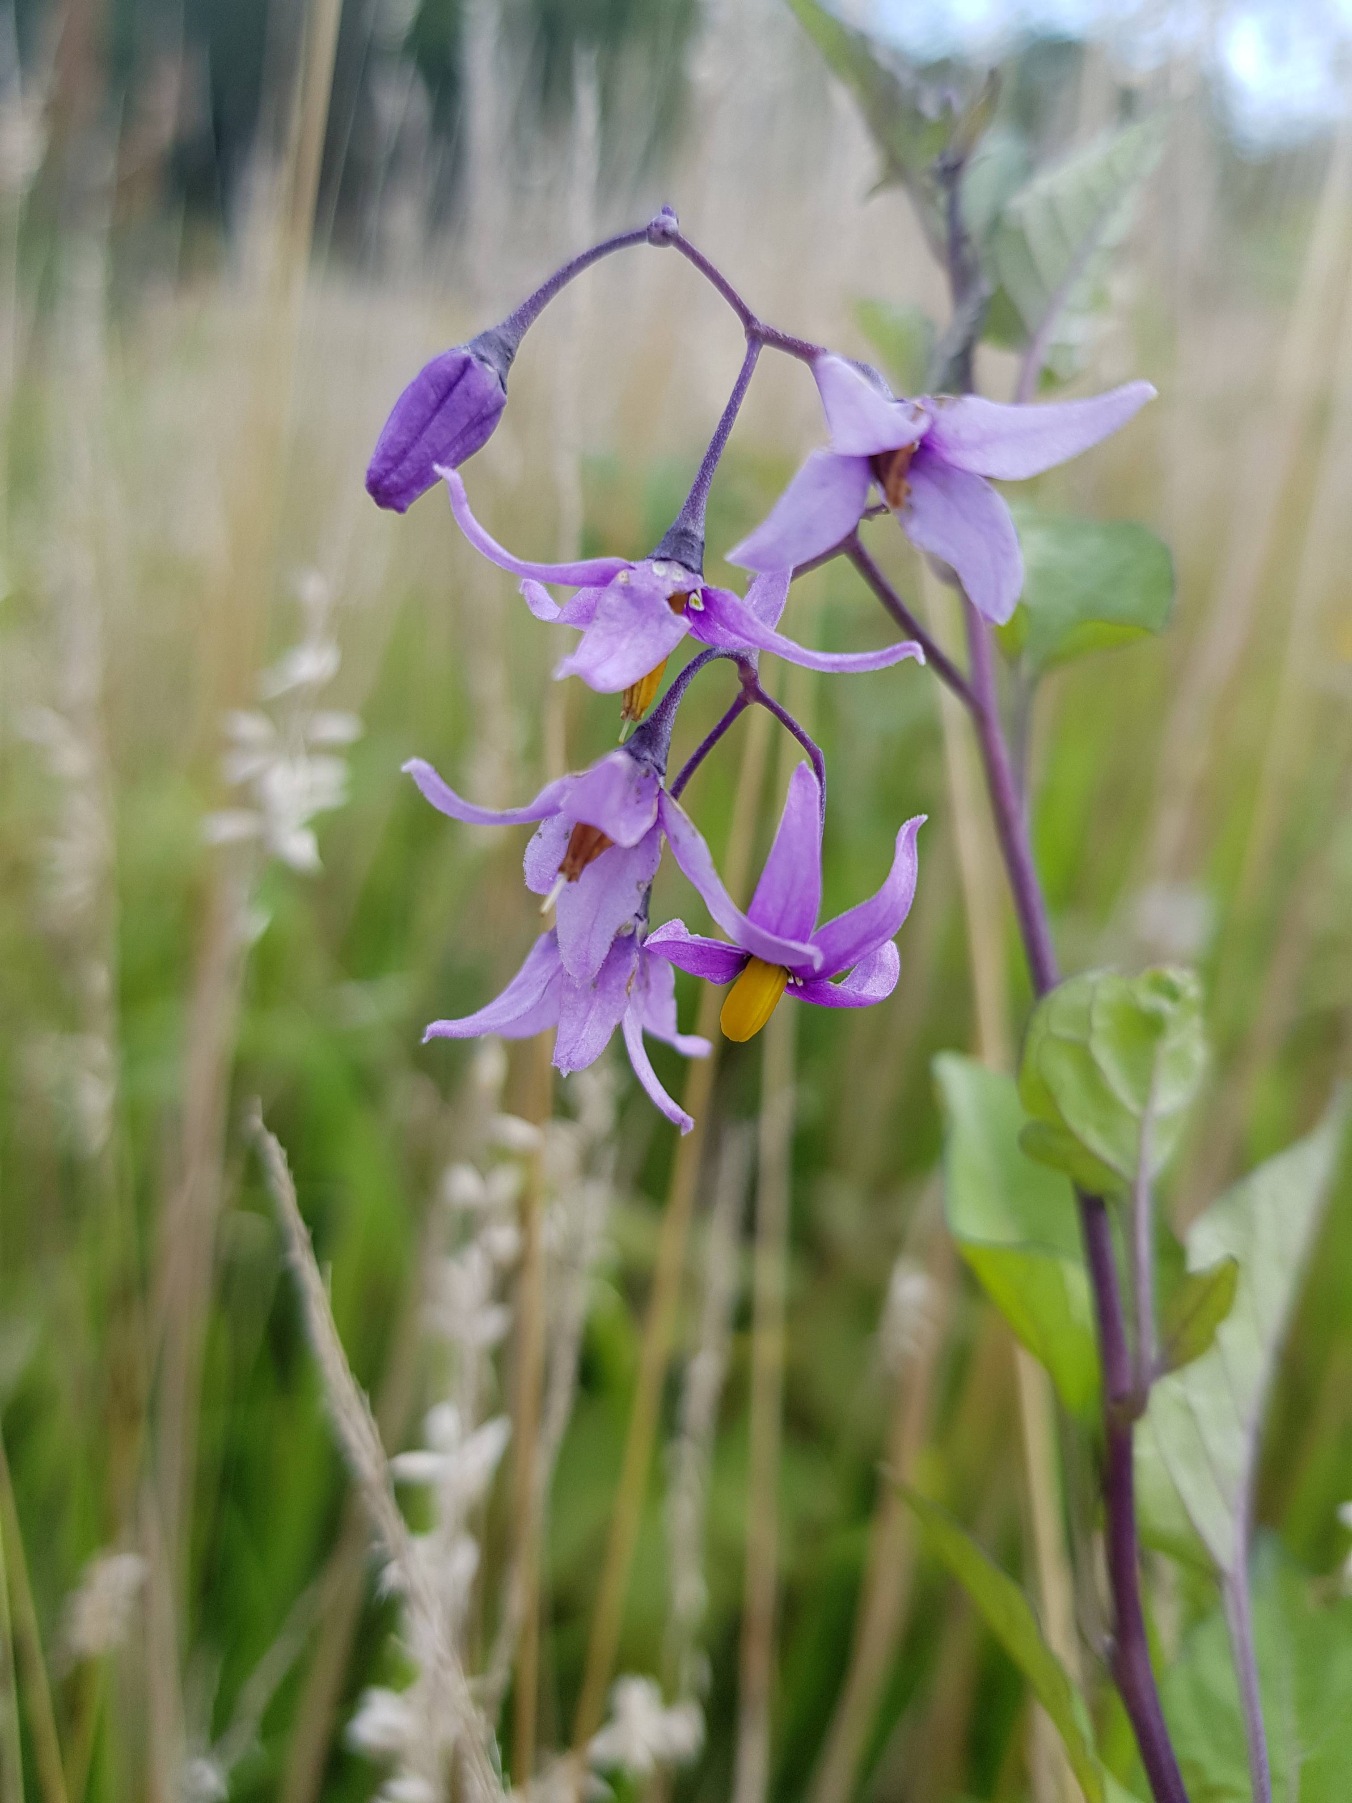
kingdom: Plantae
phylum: Tracheophyta
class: Magnoliopsida
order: Solanales
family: Solanaceae
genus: Solanum
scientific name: Solanum dulcamara
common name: Bittersød natskygge
